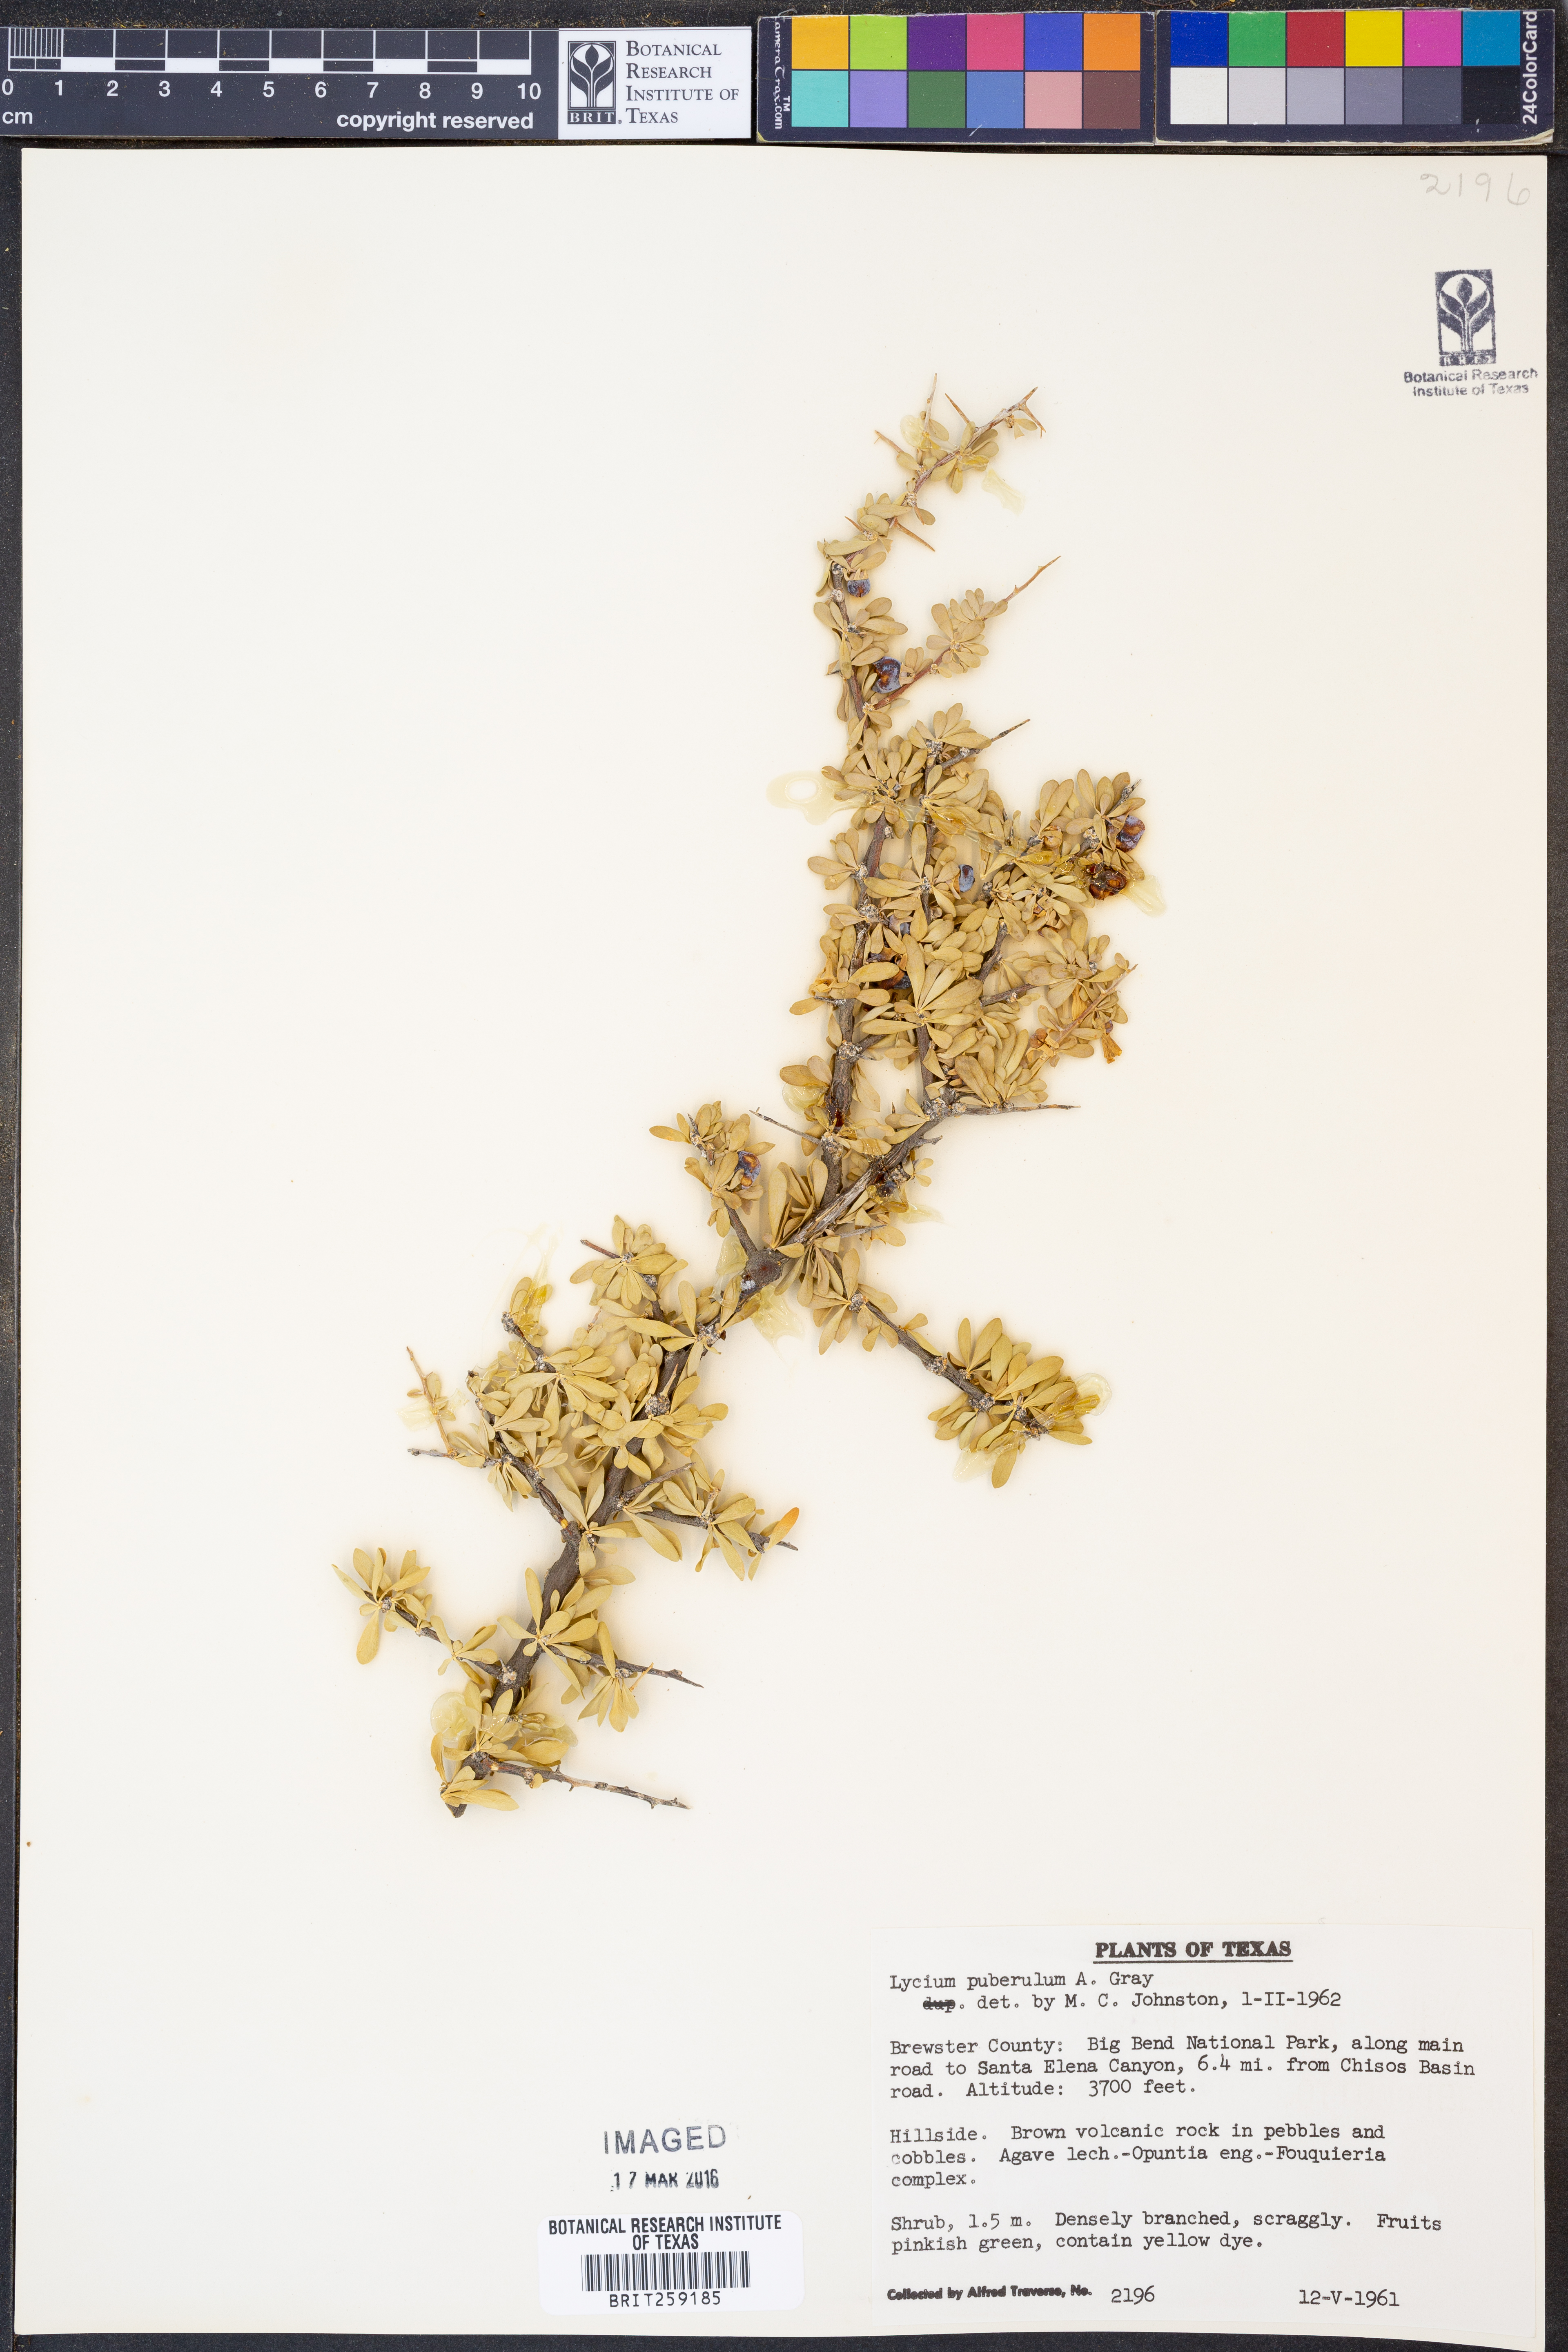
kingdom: Plantae
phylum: Tracheophyta
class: Magnoliopsida
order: Solanales
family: Solanaceae
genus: Lycium
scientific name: Lycium puberulum
